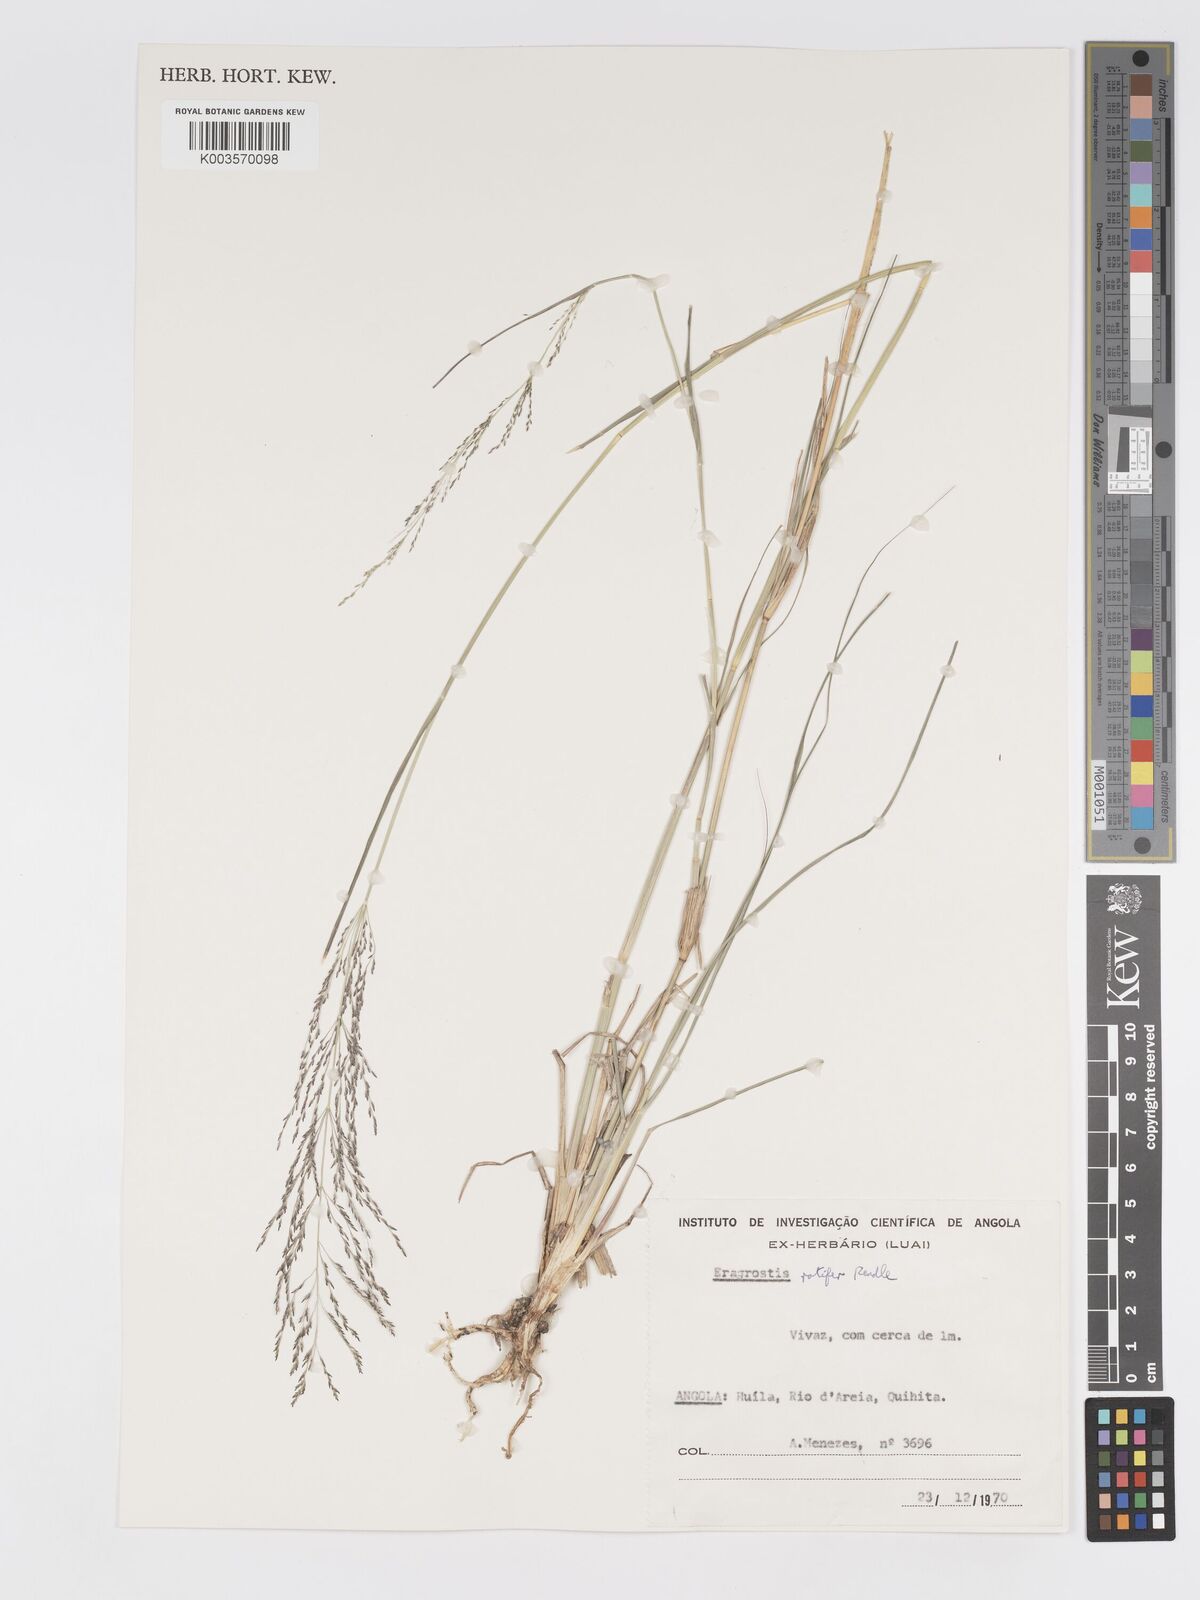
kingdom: Plantae
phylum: Tracheophyta
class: Liliopsida
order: Poales
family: Poaceae
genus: Eragrostis
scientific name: Eragrostis rotifer
